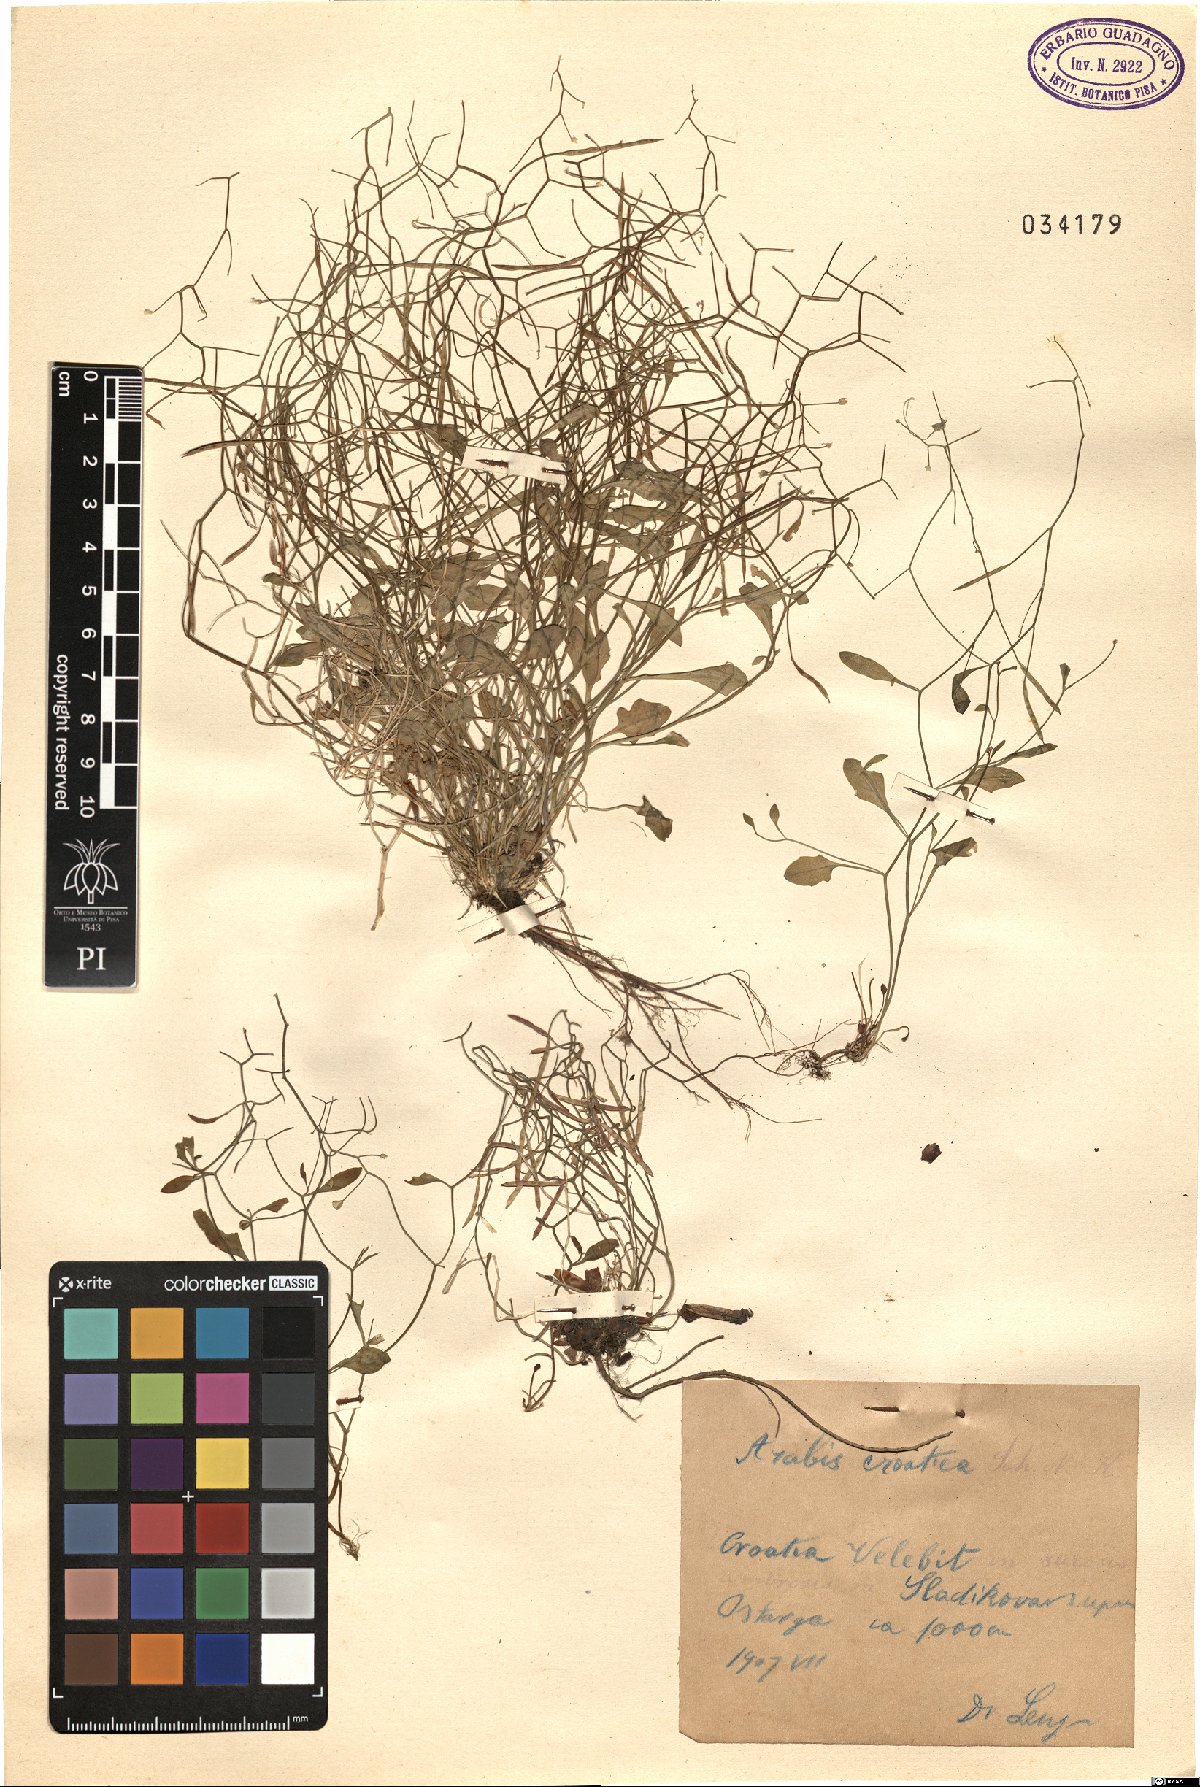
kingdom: Plantae
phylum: Tracheophyta
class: Magnoliopsida
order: Brassicales
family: Brassicaceae
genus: Arabidopsis
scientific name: Arabidopsis croatica
